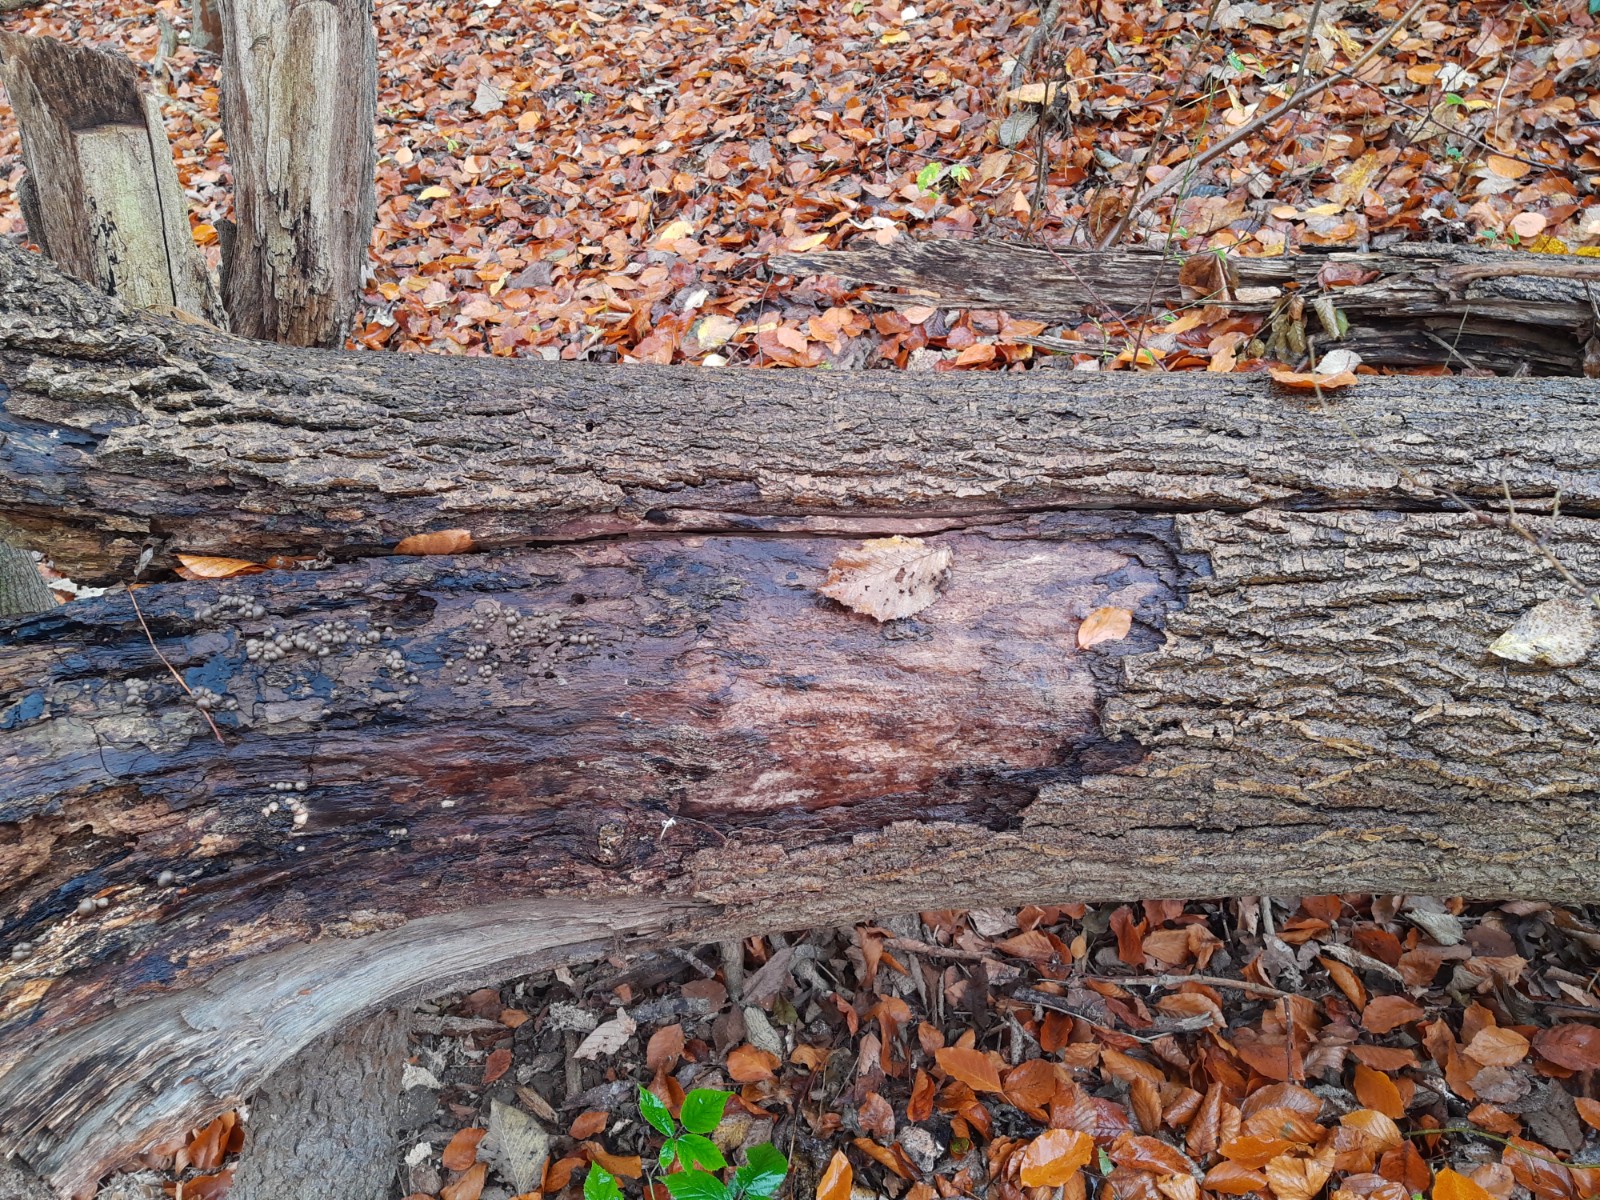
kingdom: Protozoa
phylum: Mycetozoa
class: Myxomycetes
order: Cribrariales
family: Tubiferaceae
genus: Lycogala
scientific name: Lycogala epidendrum
